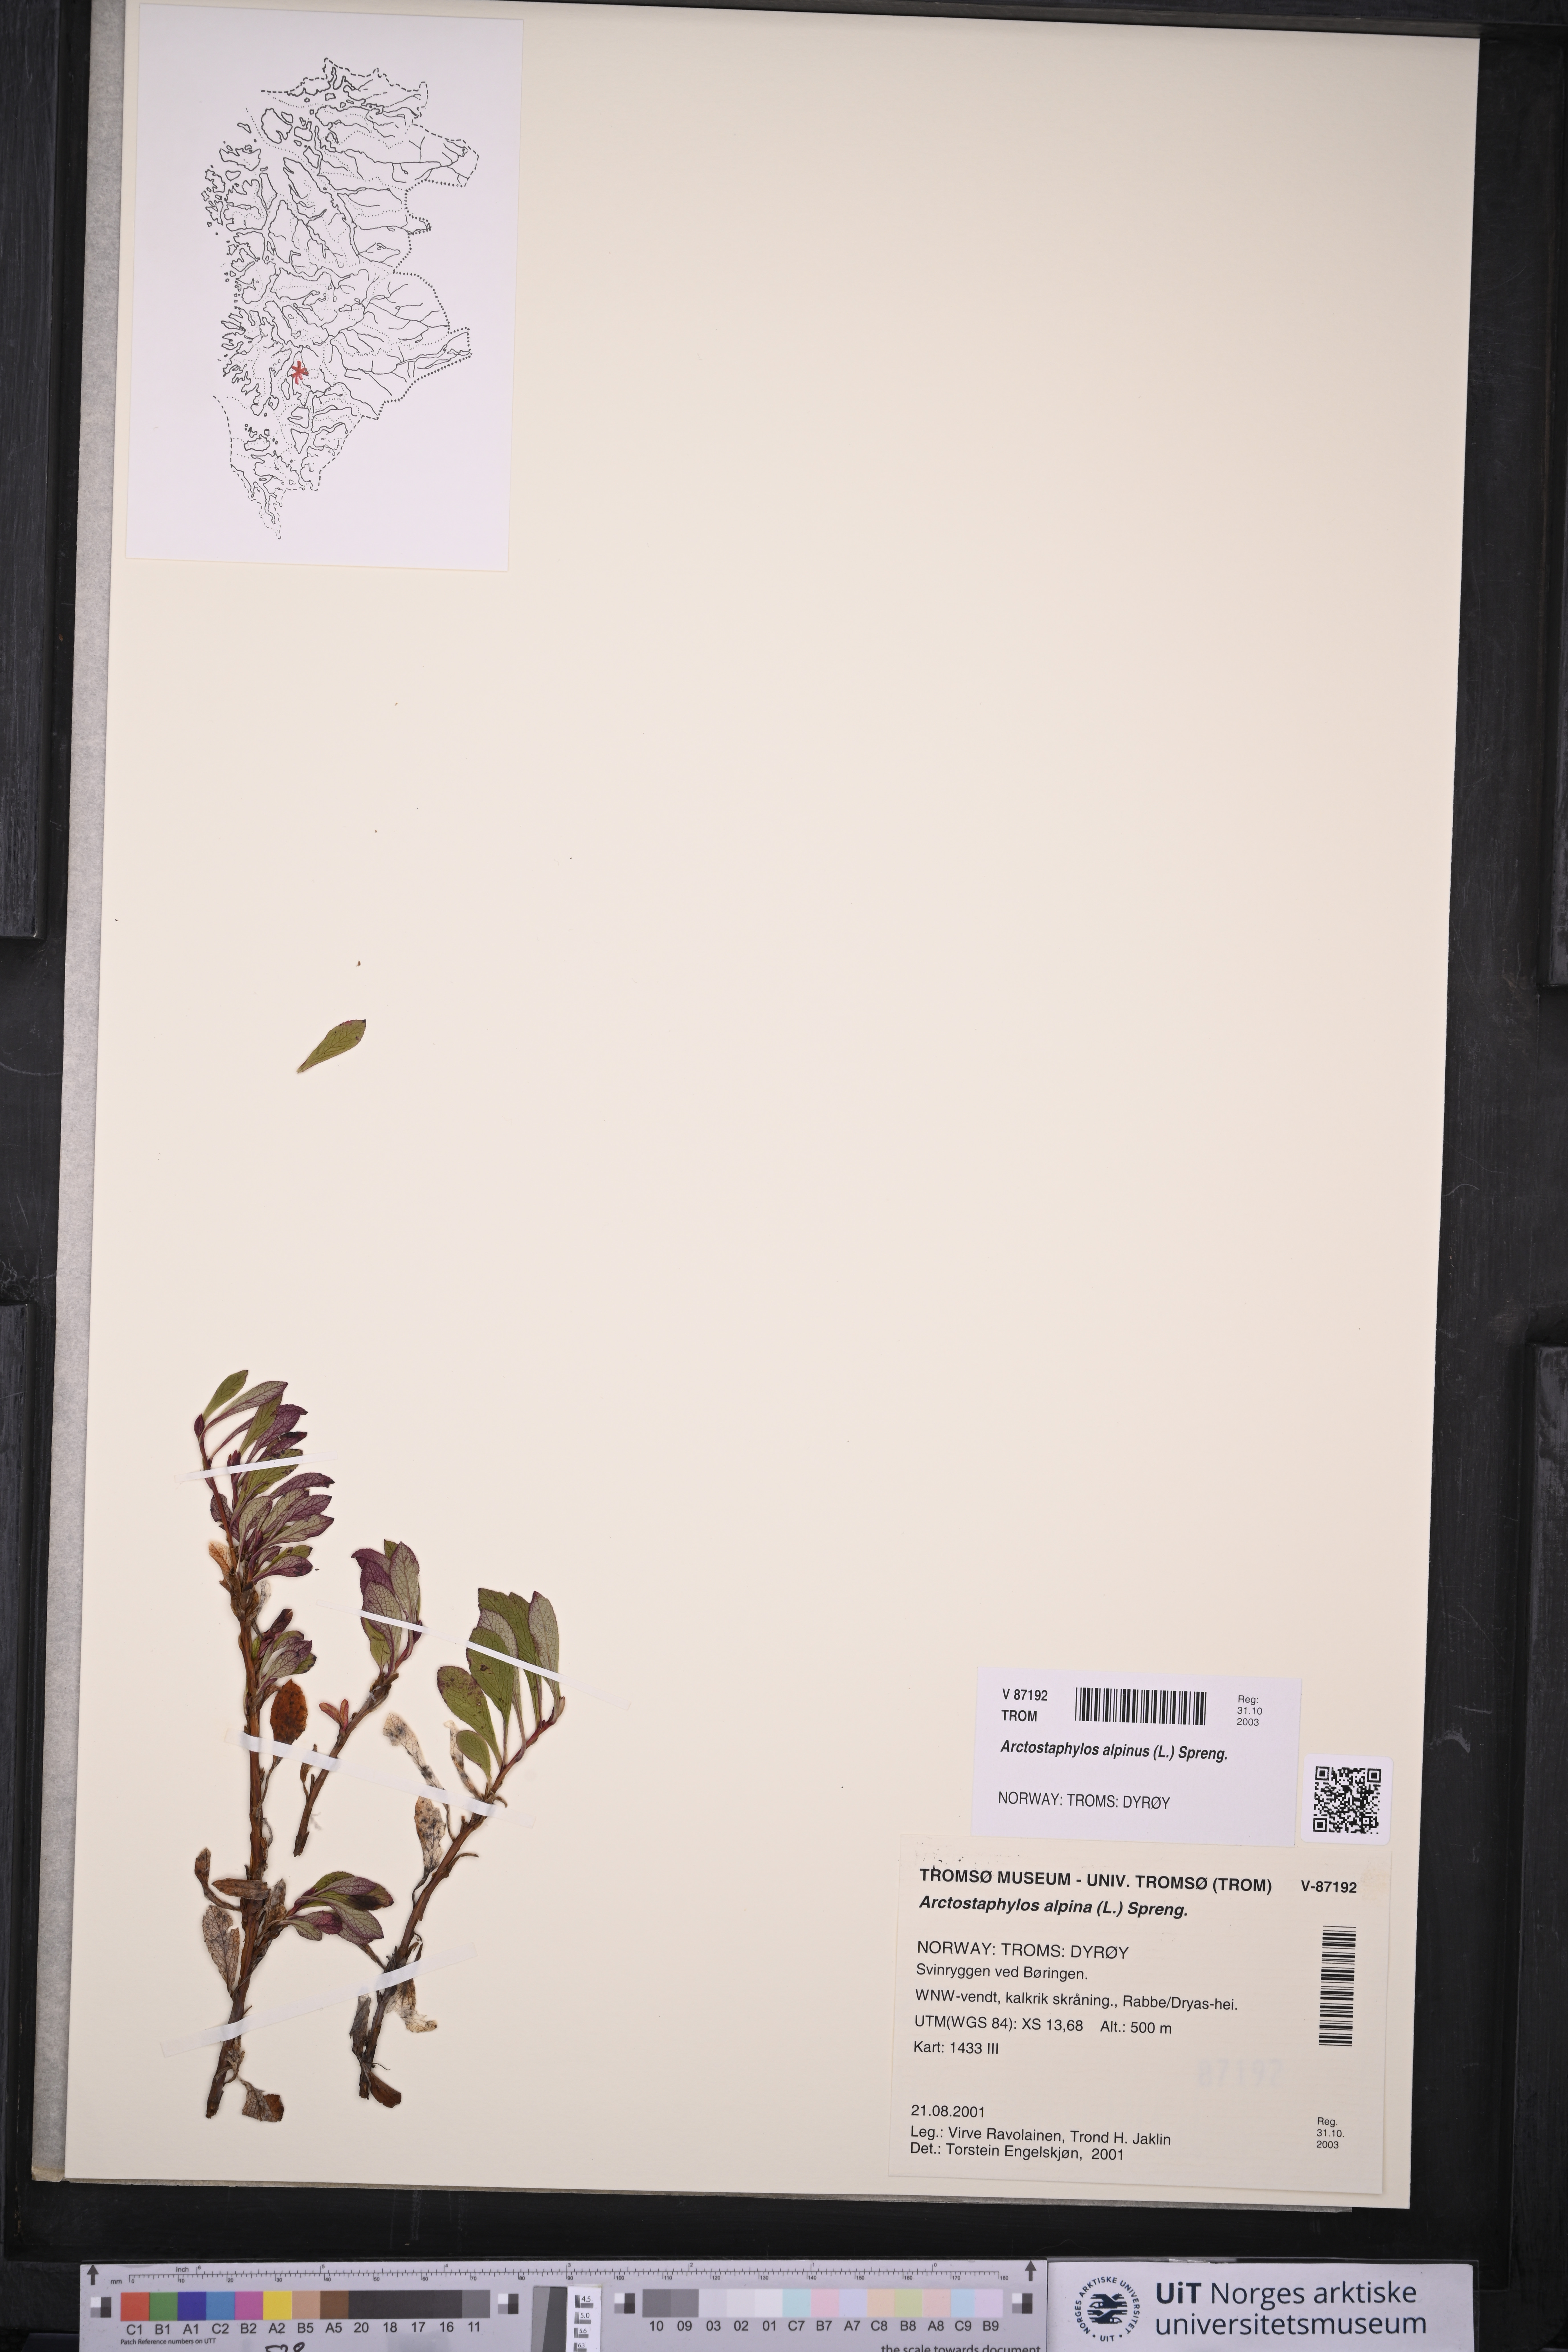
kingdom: Plantae
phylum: Tracheophyta
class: Magnoliopsida
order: Ericales
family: Ericaceae
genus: Arctostaphylos
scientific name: Arctostaphylos alpinus
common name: Alpine bearberry
